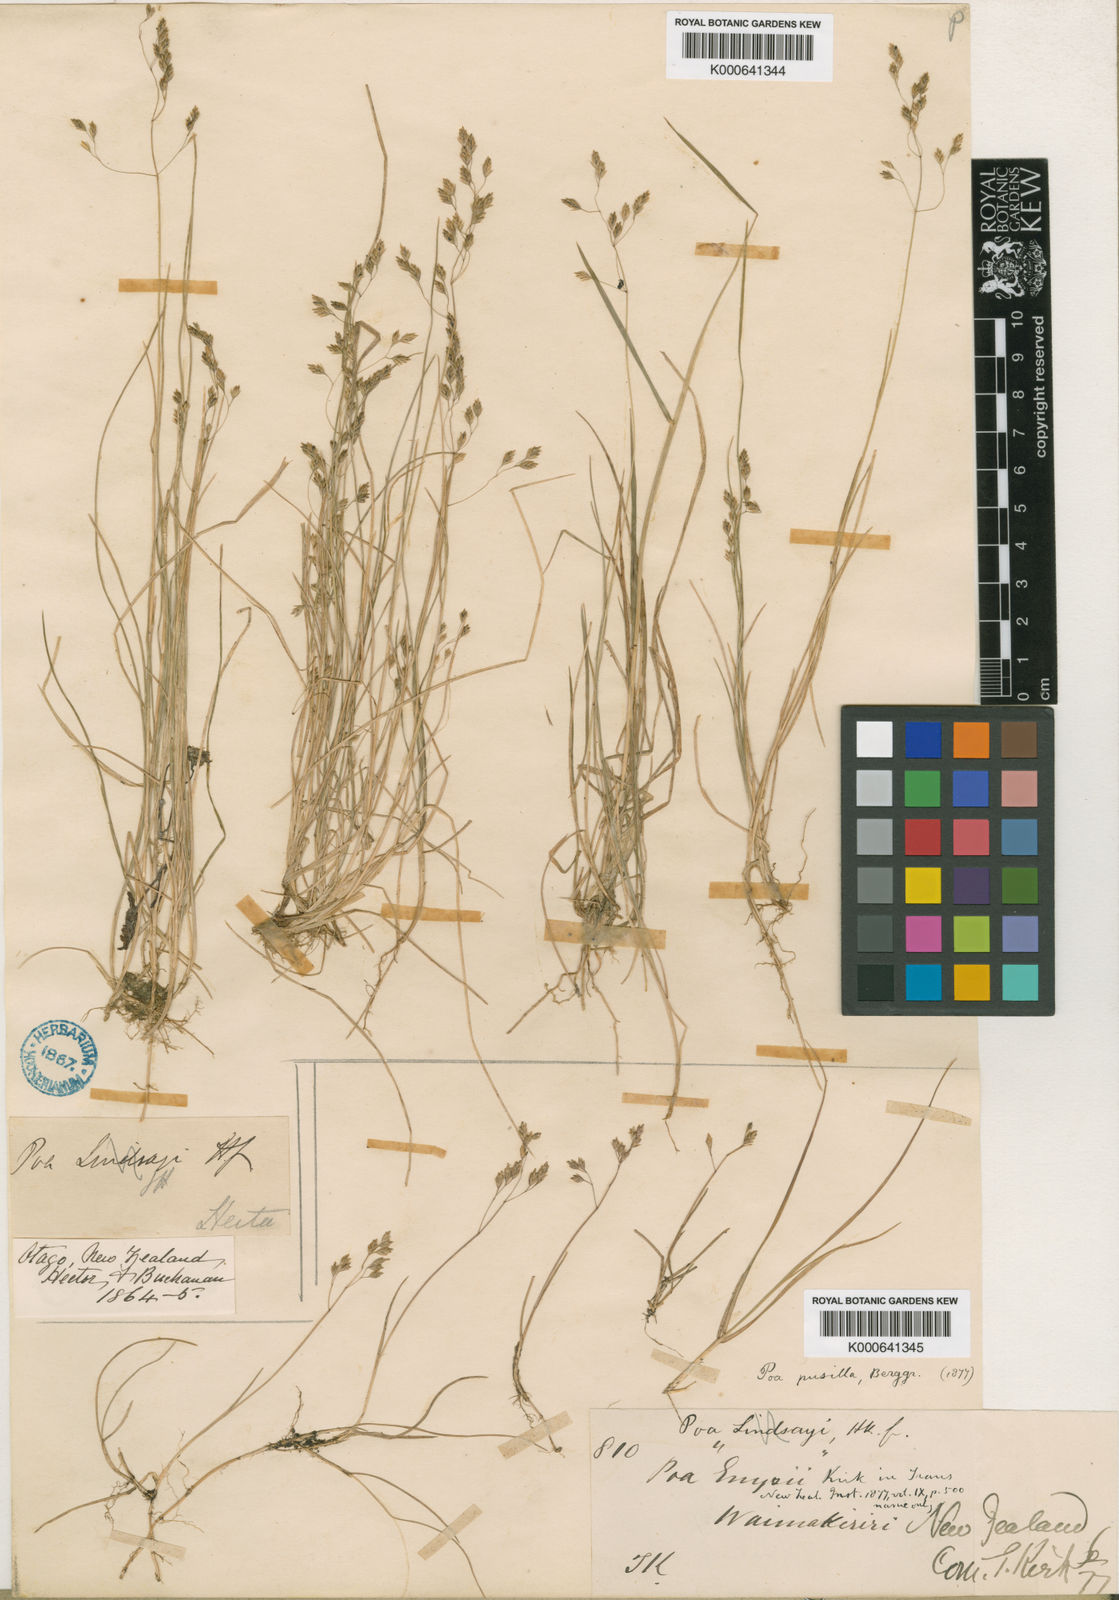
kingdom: Plantae
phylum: Tracheophyta
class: Liliopsida
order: Poales
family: Poaceae
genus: Poa
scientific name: Poa pusilla
